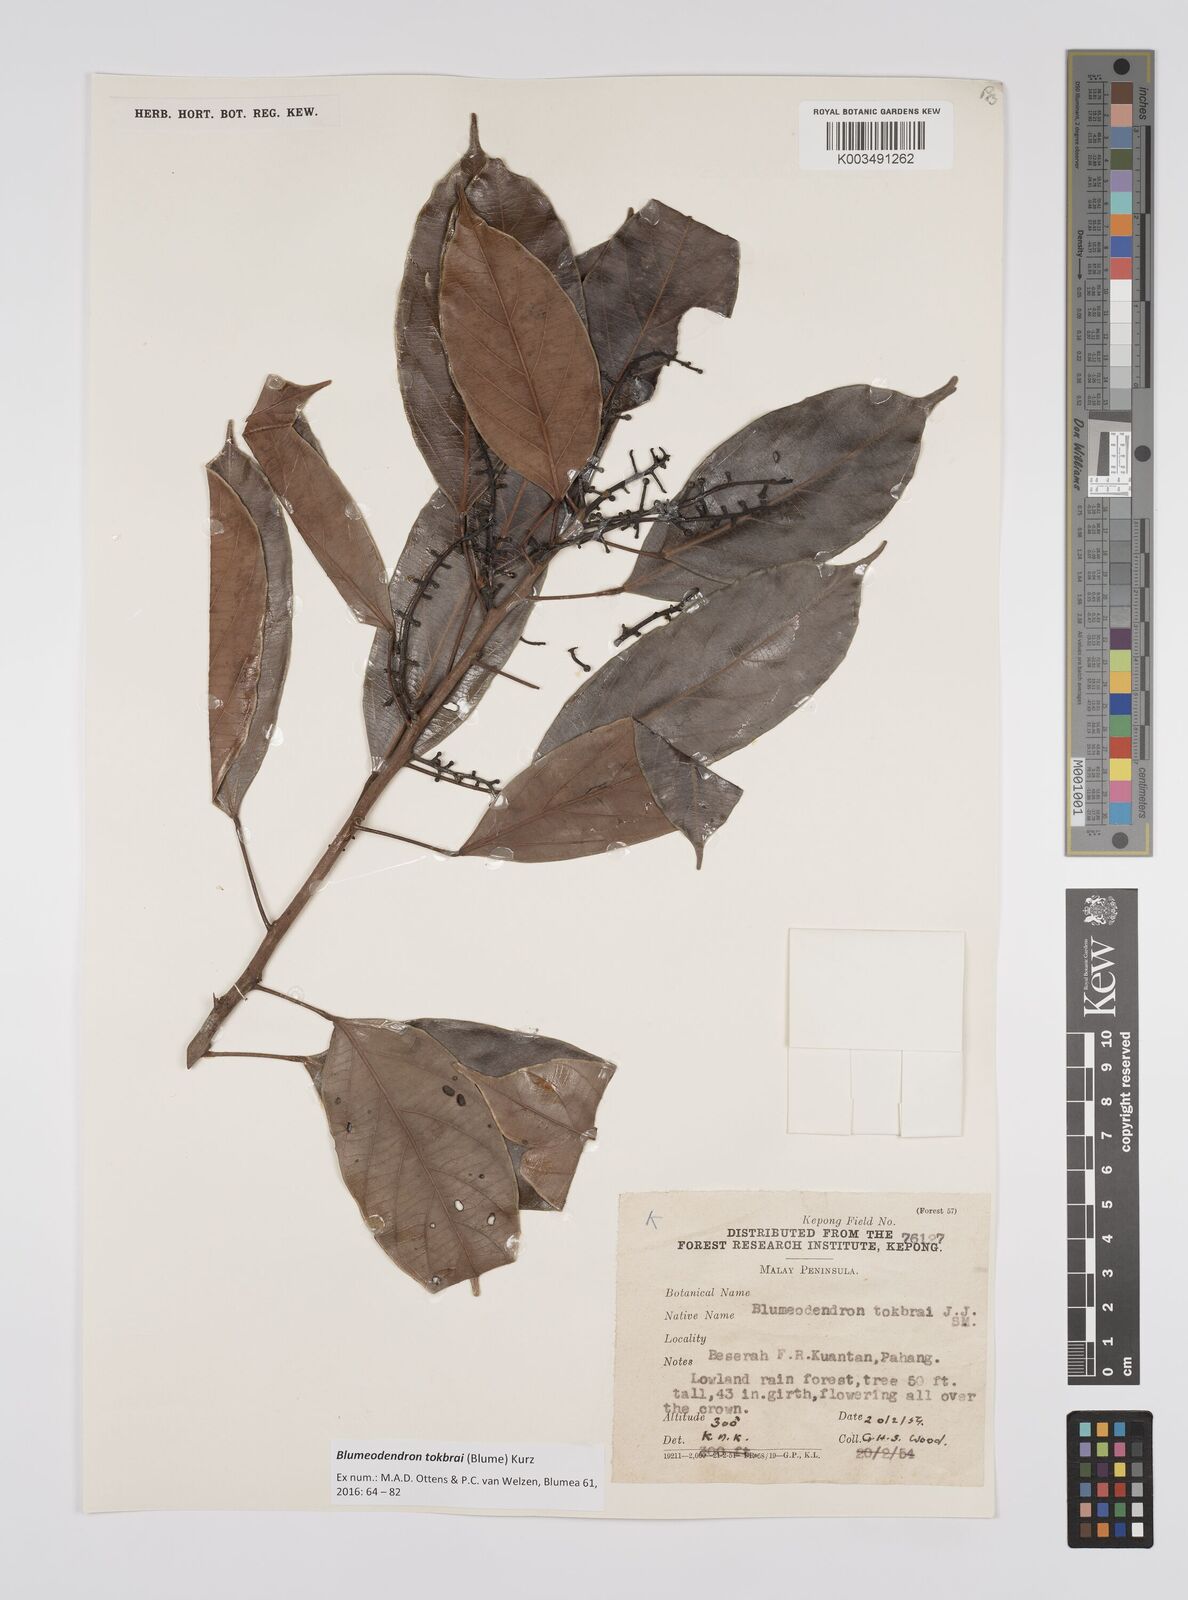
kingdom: Plantae
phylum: Tracheophyta
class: Magnoliopsida
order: Malpighiales
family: Euphorbiaceae
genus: Blumeodendron
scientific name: Blumeodendron tokbrai
